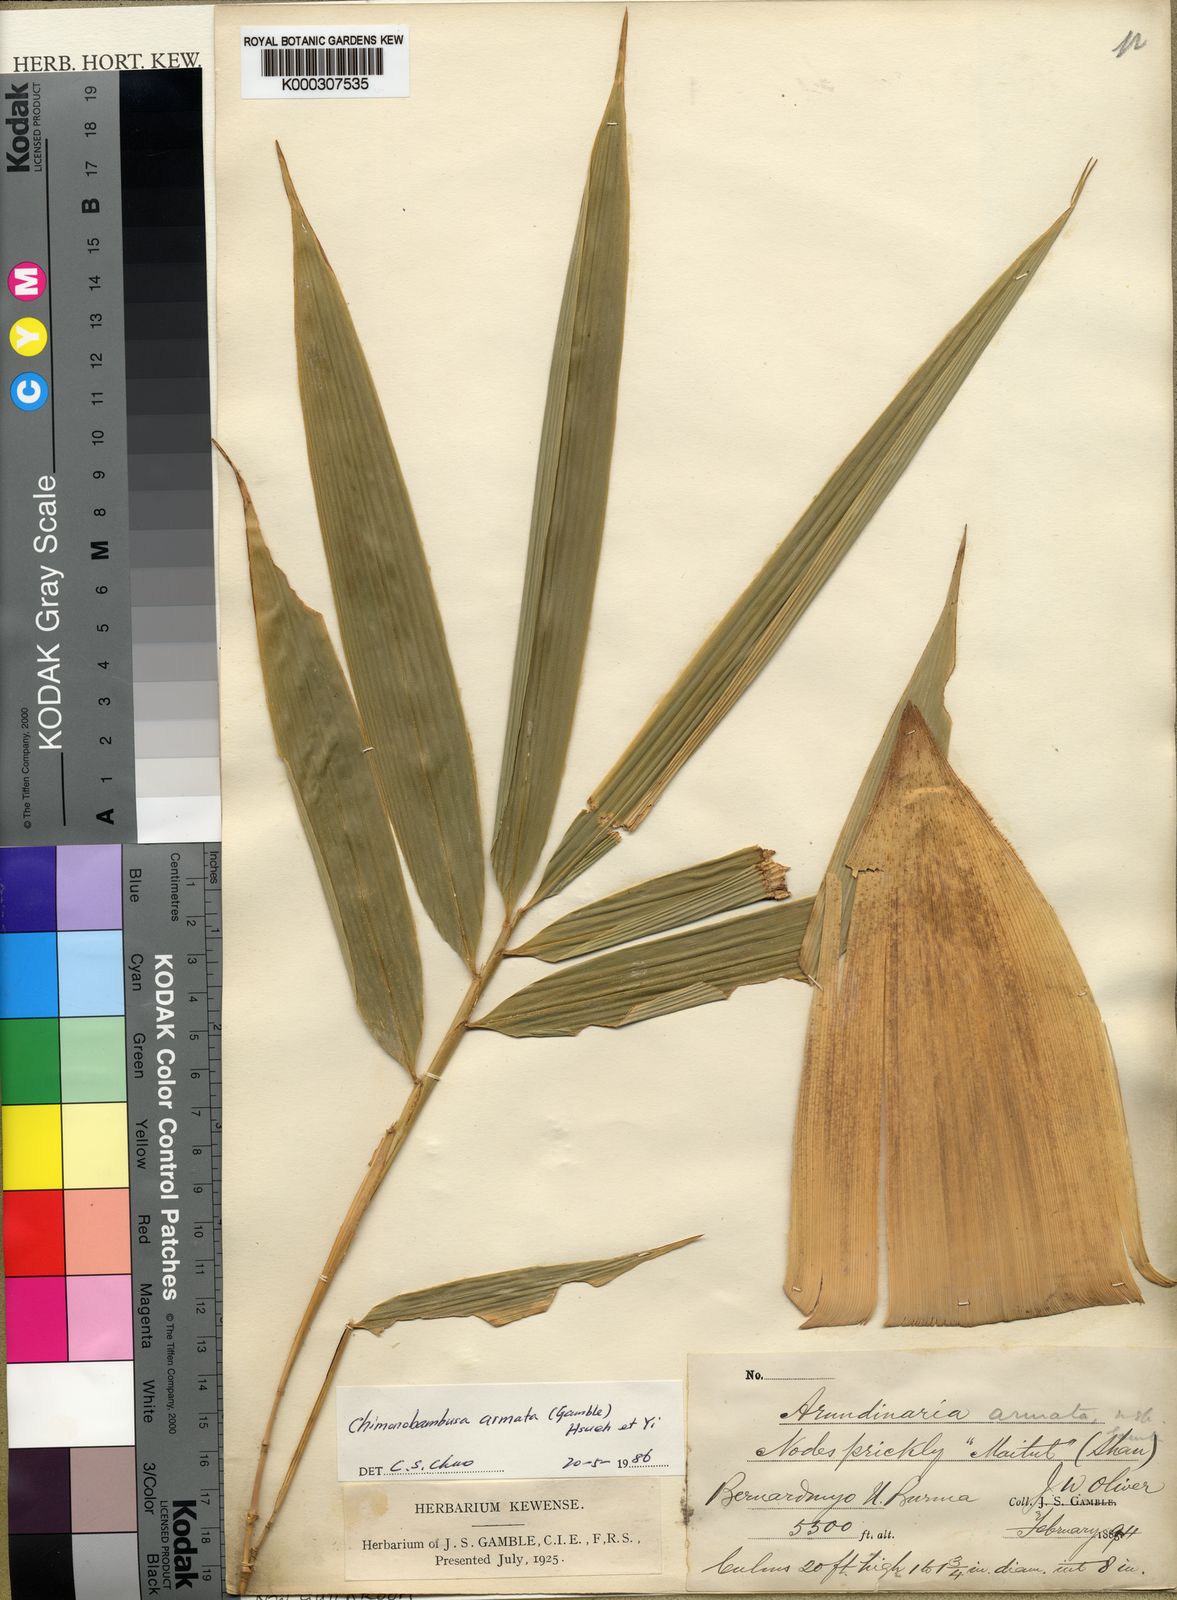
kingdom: Plantae
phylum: Tracheophyta
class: Liliopsida
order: Poales
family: Poaceae
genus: Chimonobambusa
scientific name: Chimonobambusa armata
